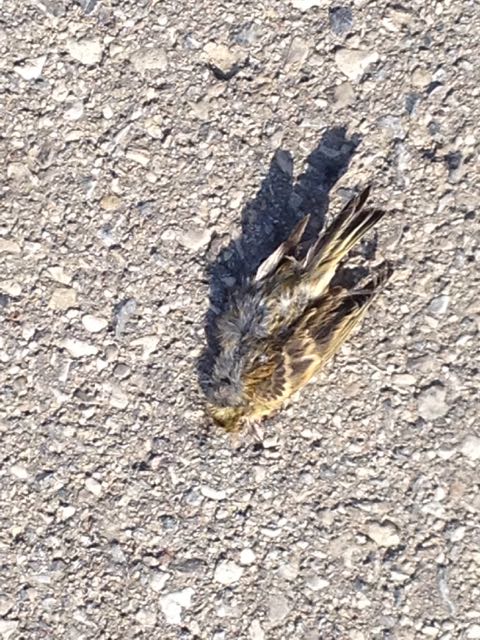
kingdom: Animalia
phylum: Chordata
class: Aves
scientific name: Aves
